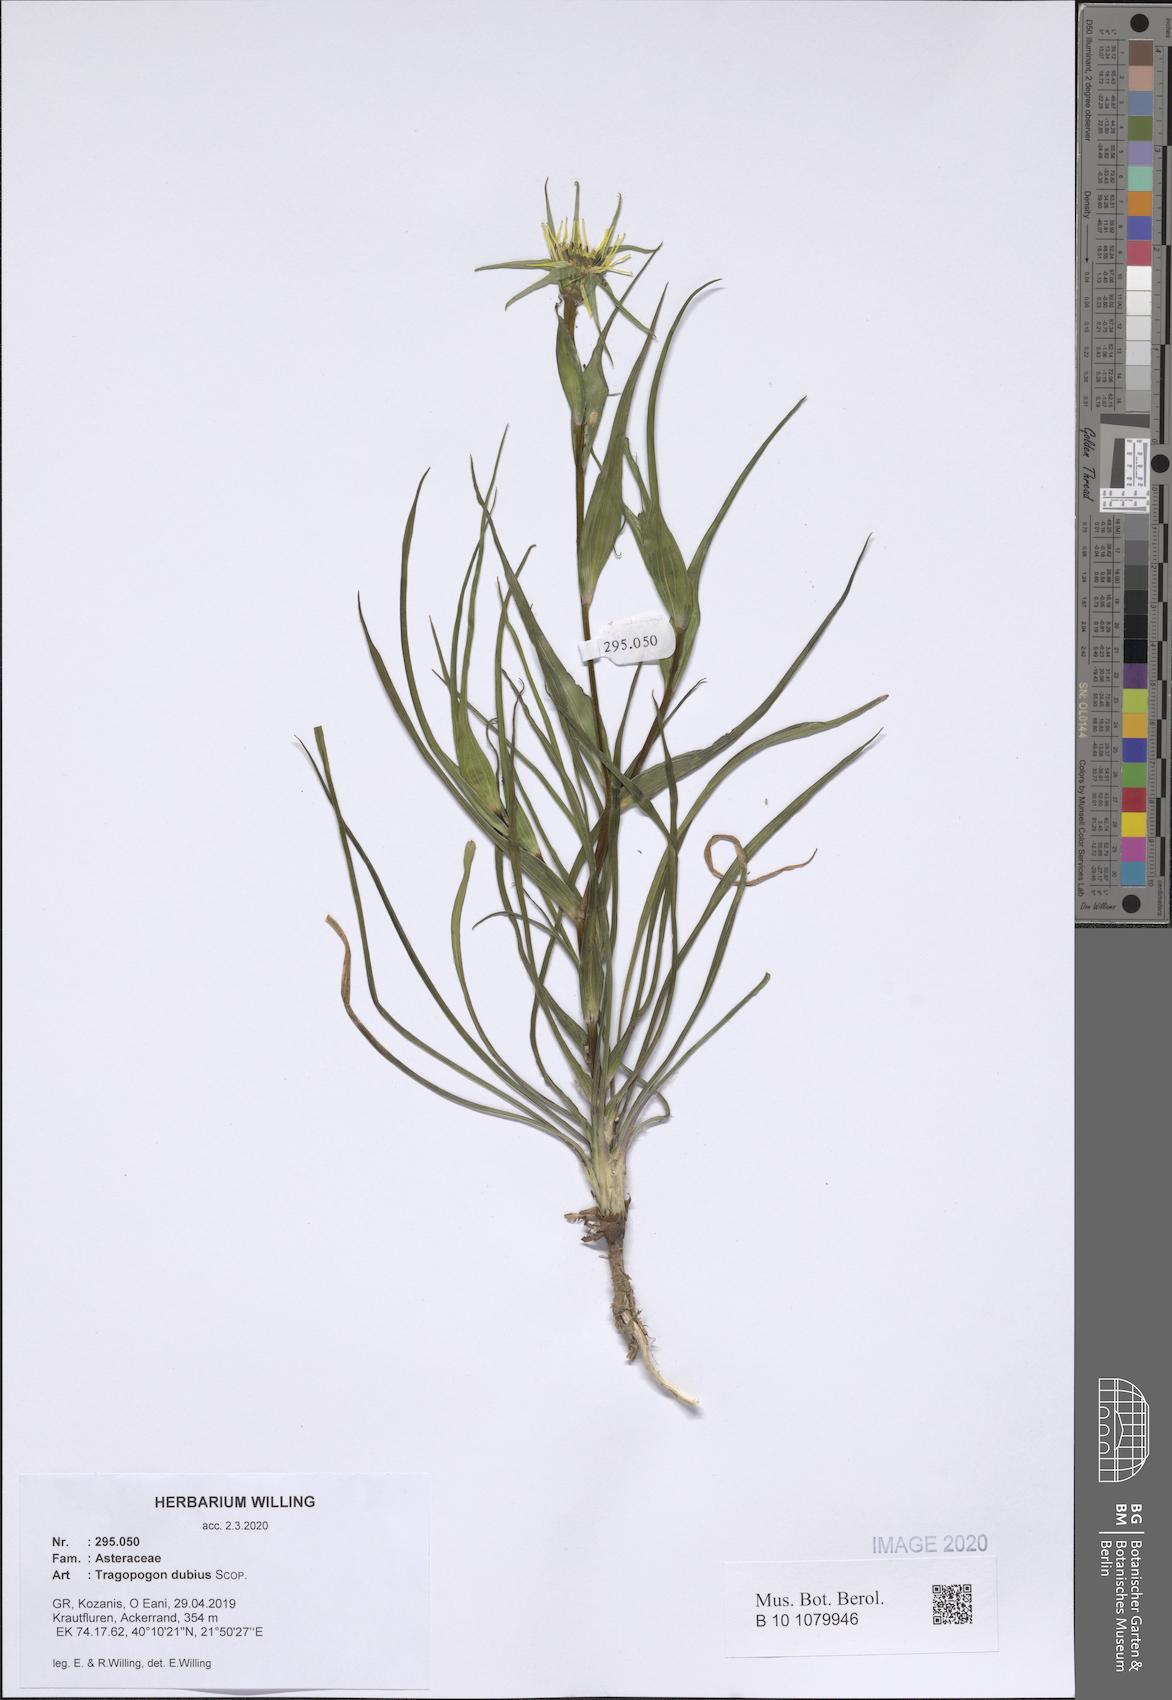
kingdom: Plantae
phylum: Tracheophyta
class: Magnoliopsida
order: Asterales
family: Asteraceae
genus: Tragopogon
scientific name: Tragopogon dubius
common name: Yellow salsify
